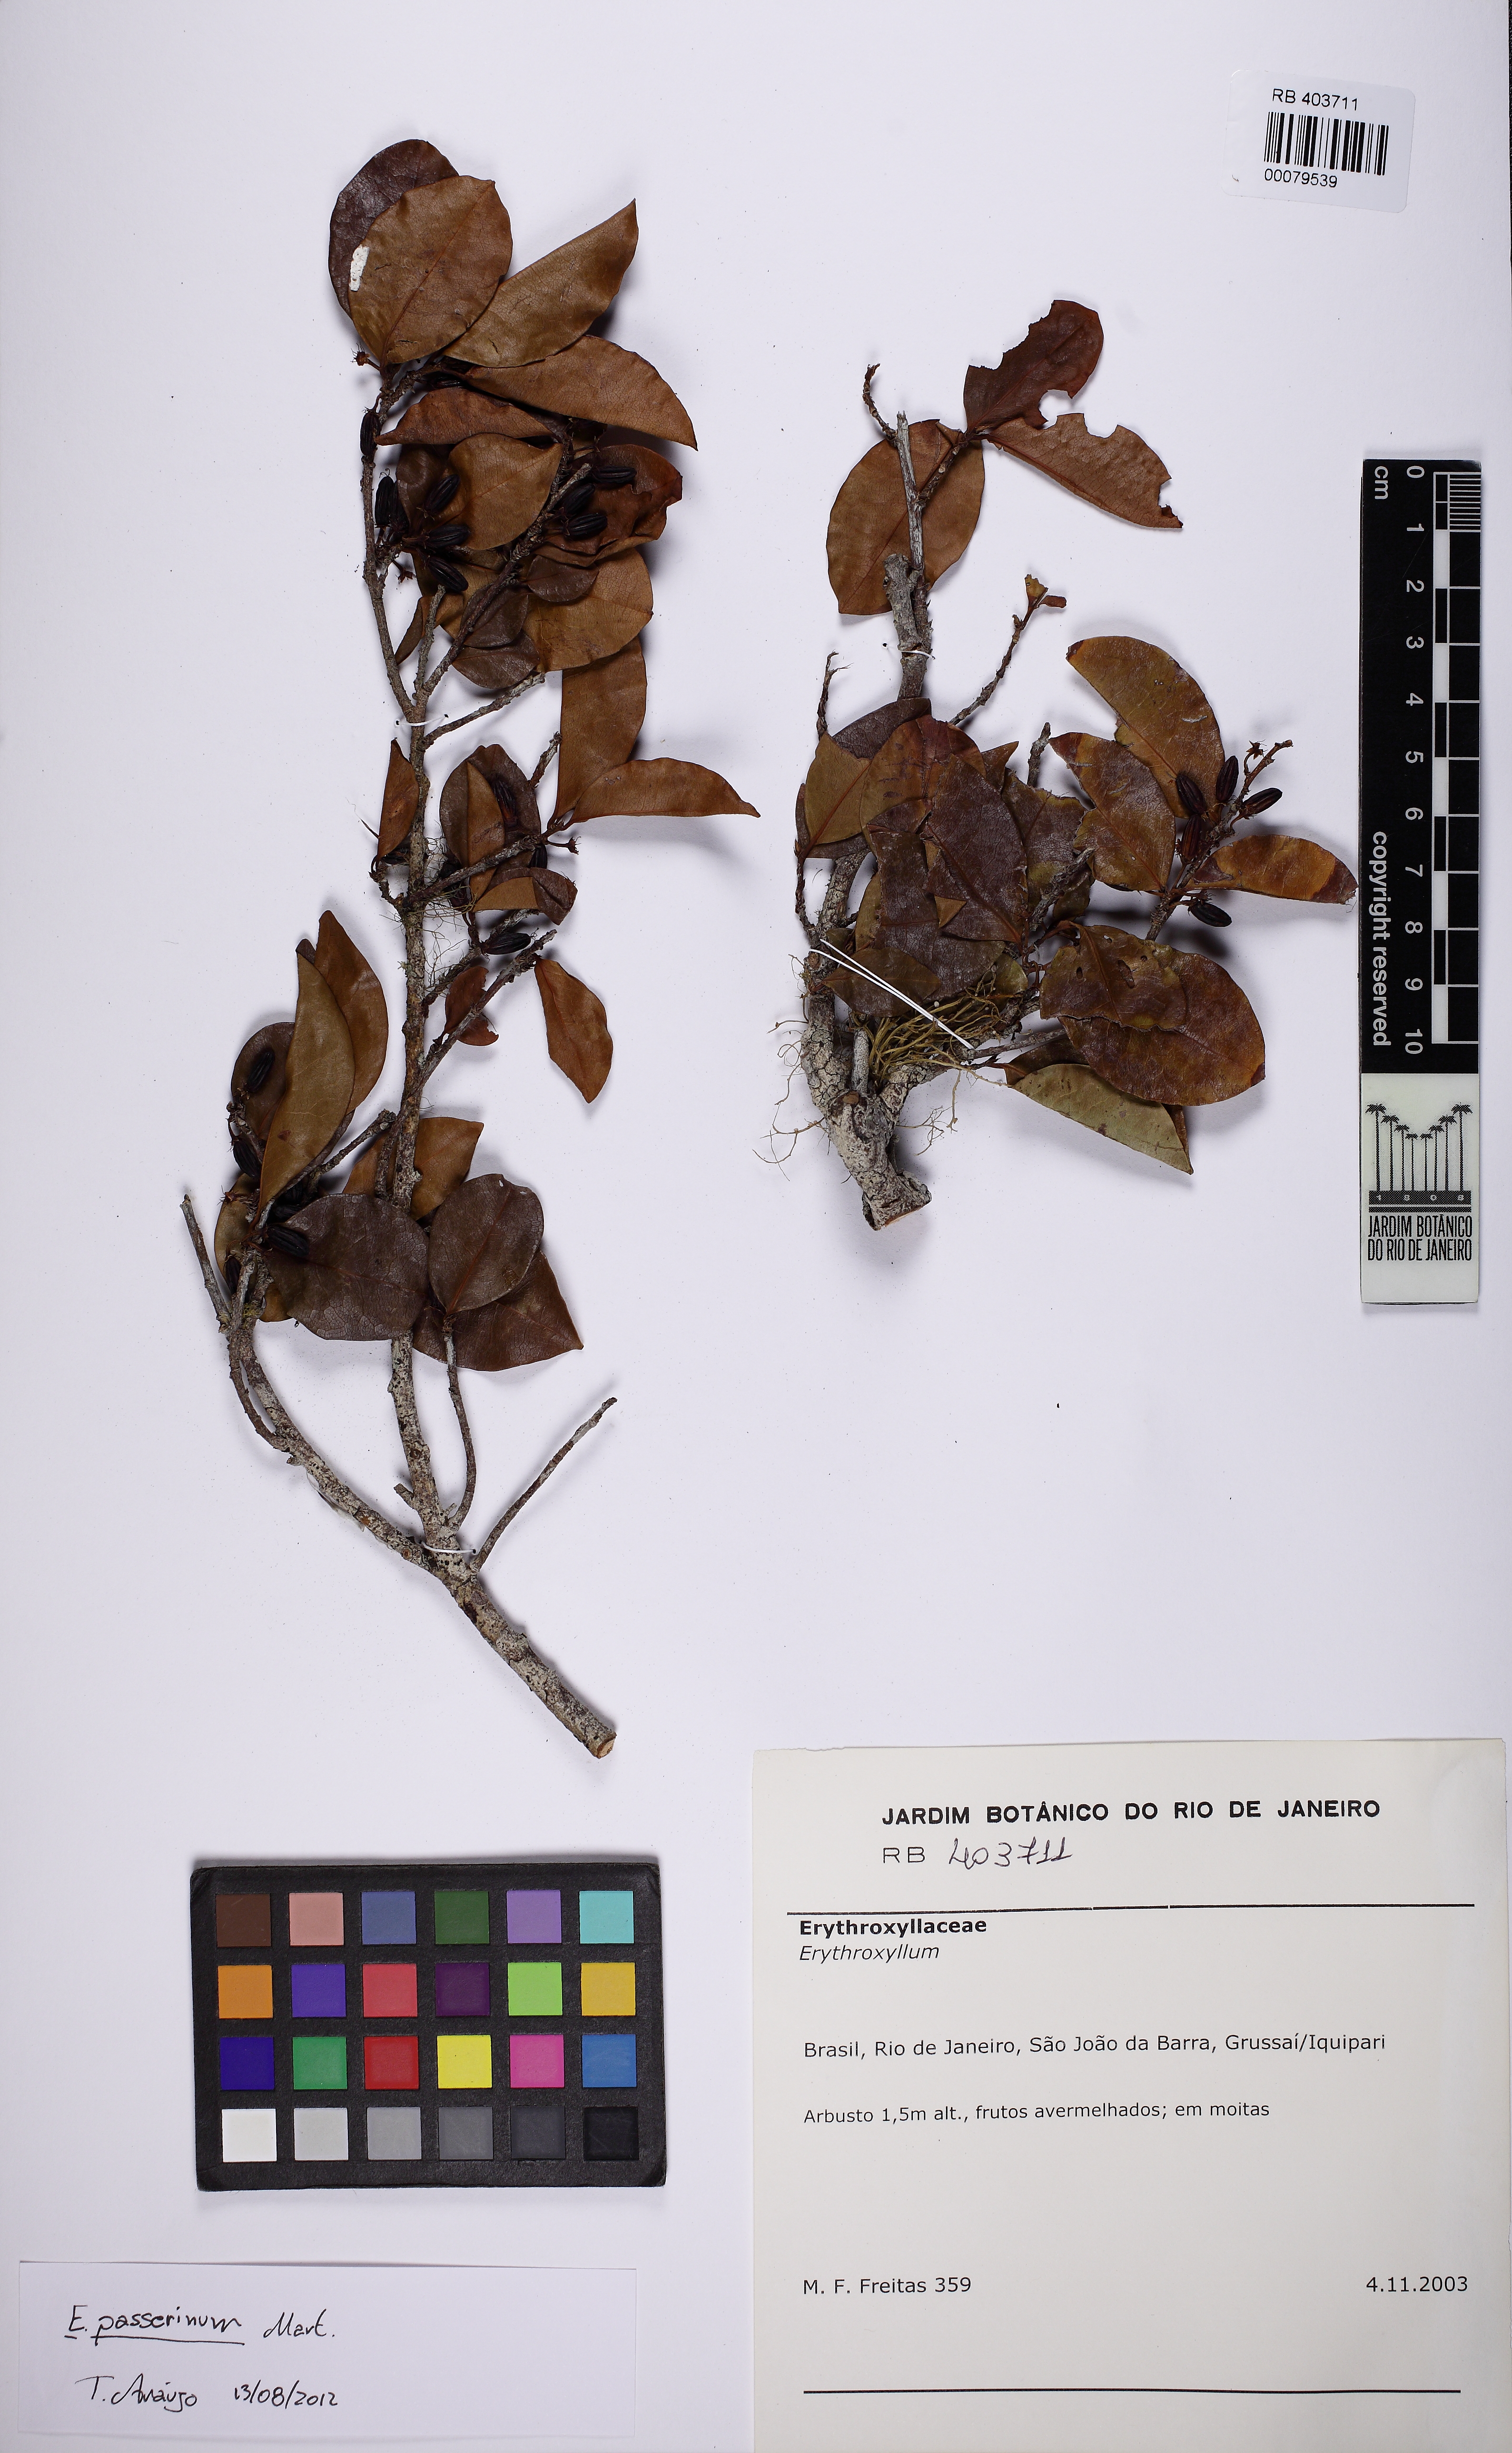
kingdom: Plantae
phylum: Tracheophyta
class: Magnoliopsida
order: Malpighiales
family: Erythroxylaceae
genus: Erythroxylum
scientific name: Erythroxylum passerinum
